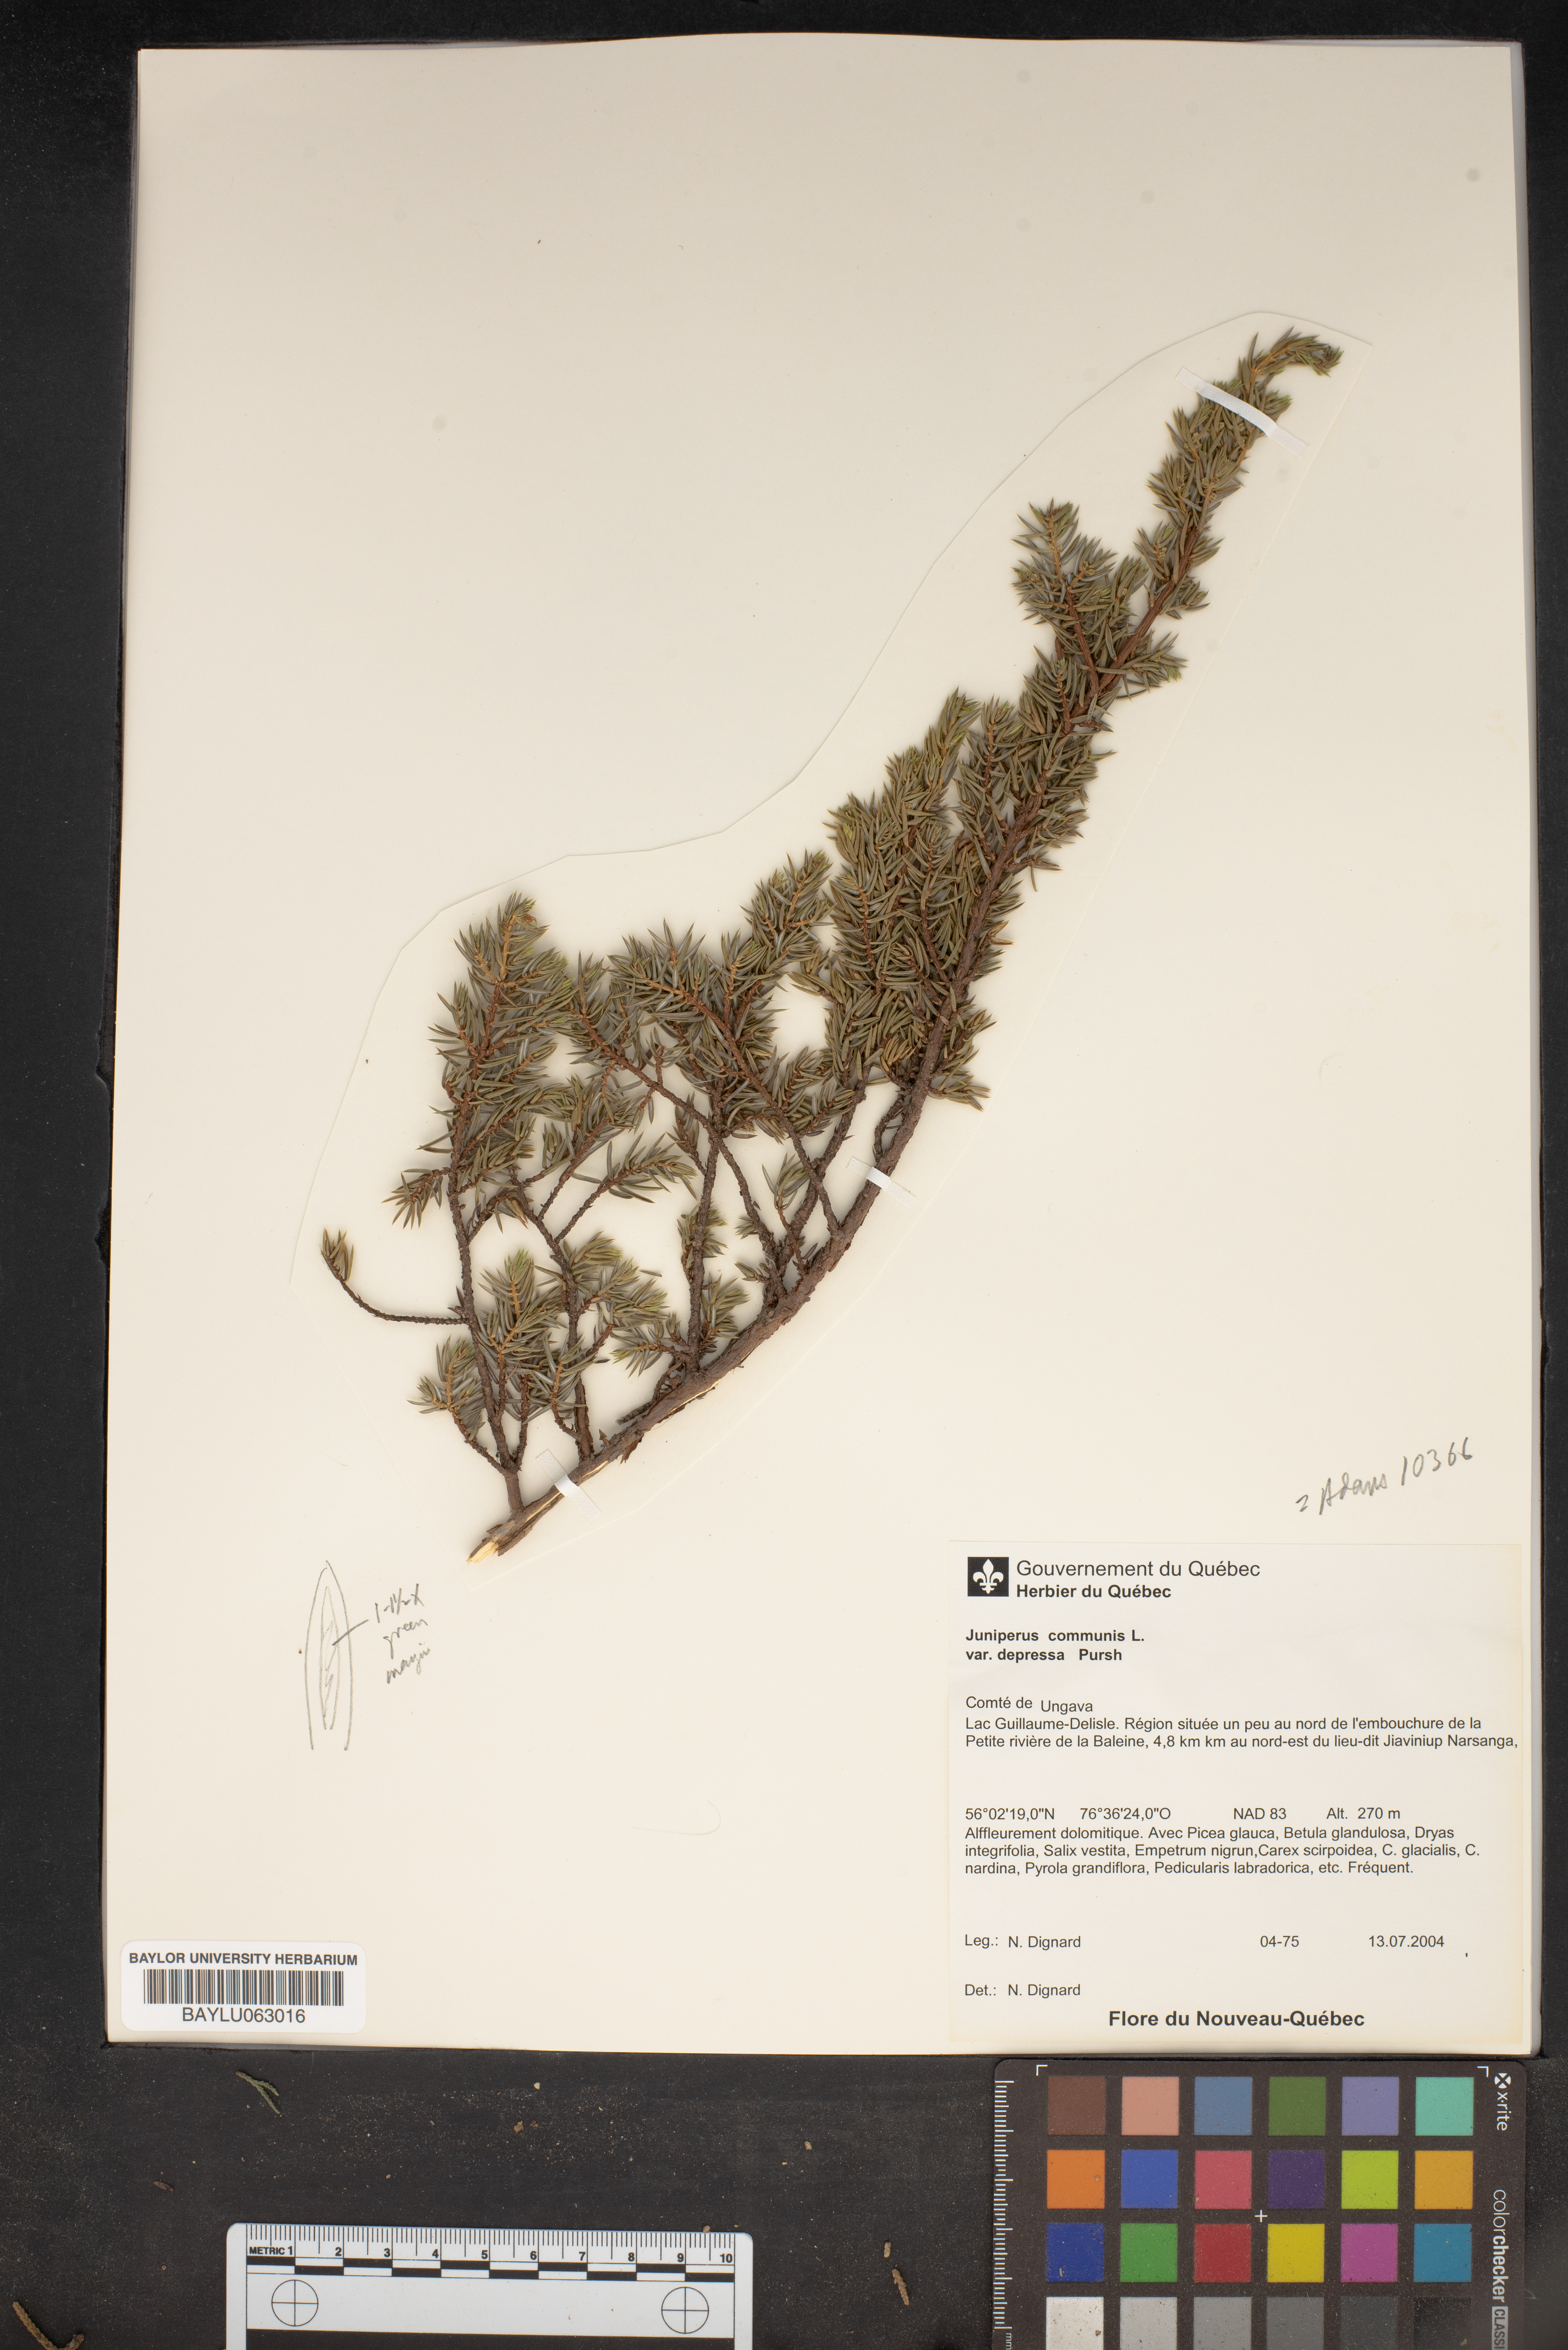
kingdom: Plantae
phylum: Tracheophyta
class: Pinopsida
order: Pinales
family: Cupressaceae
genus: Juniperus
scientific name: Juniperus communis
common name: Common juniper
